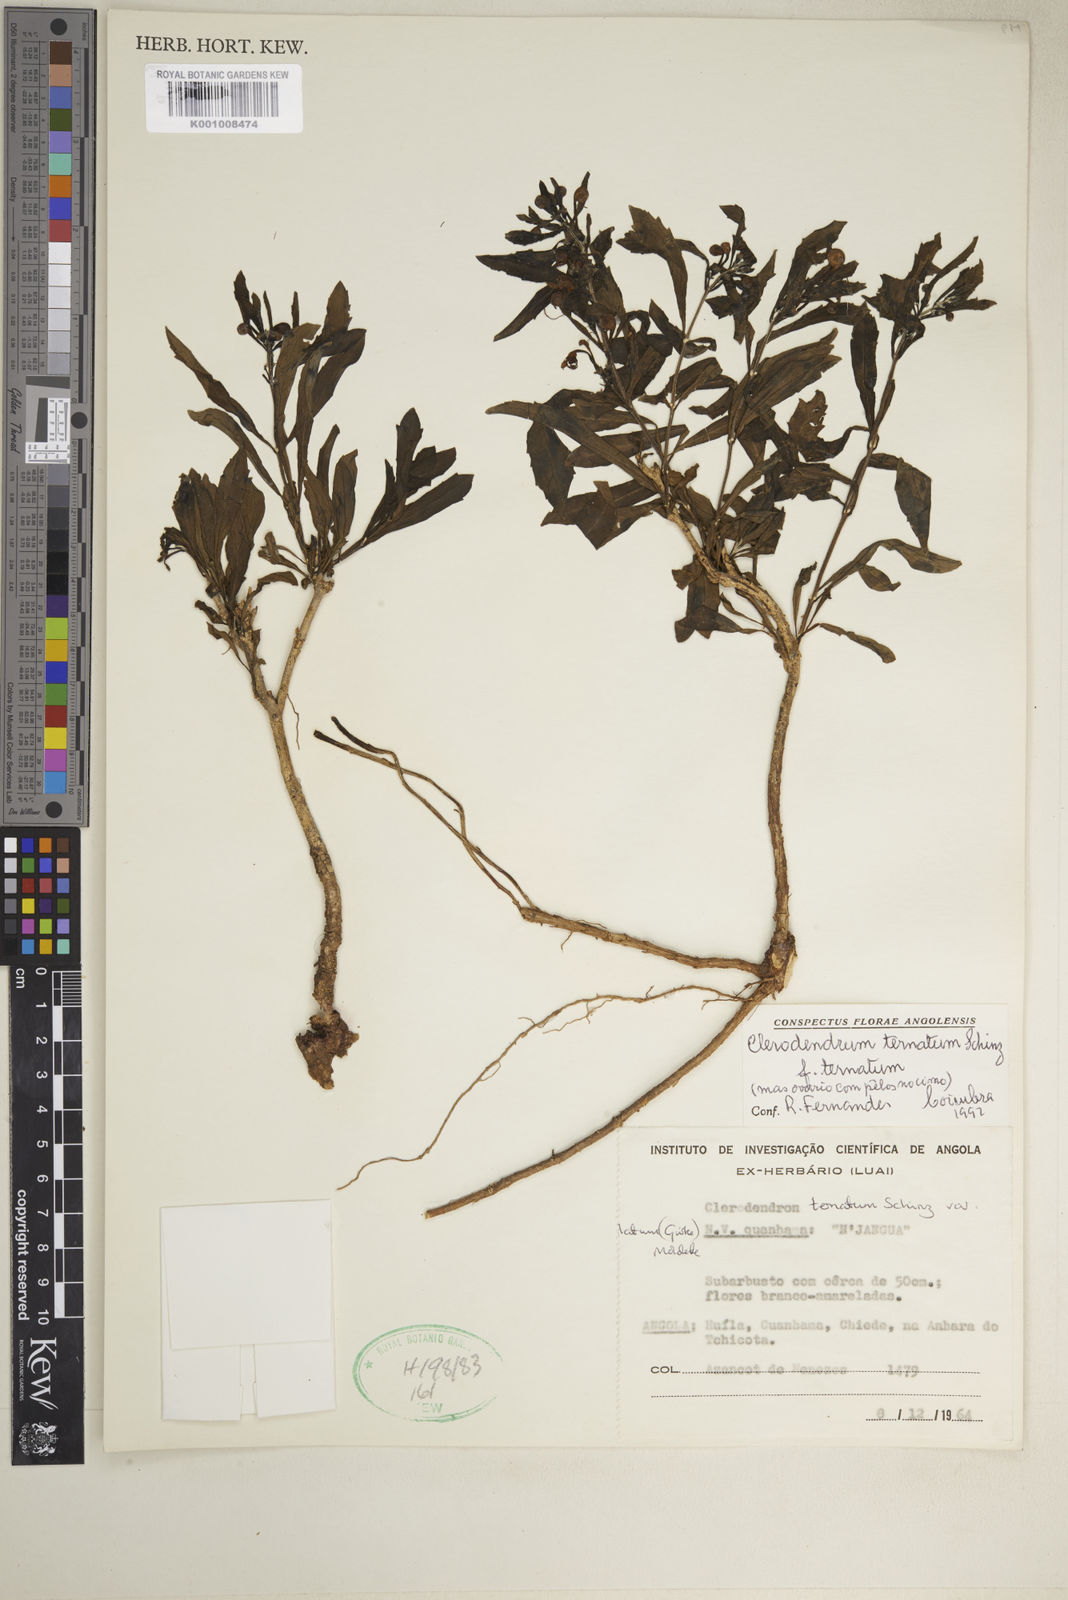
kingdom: Plantae
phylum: Tracheophyta
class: Magnoliopsida
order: Lamiales
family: Lamiaceae
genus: Clerodendrum
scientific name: Clerodendrum ternatum
